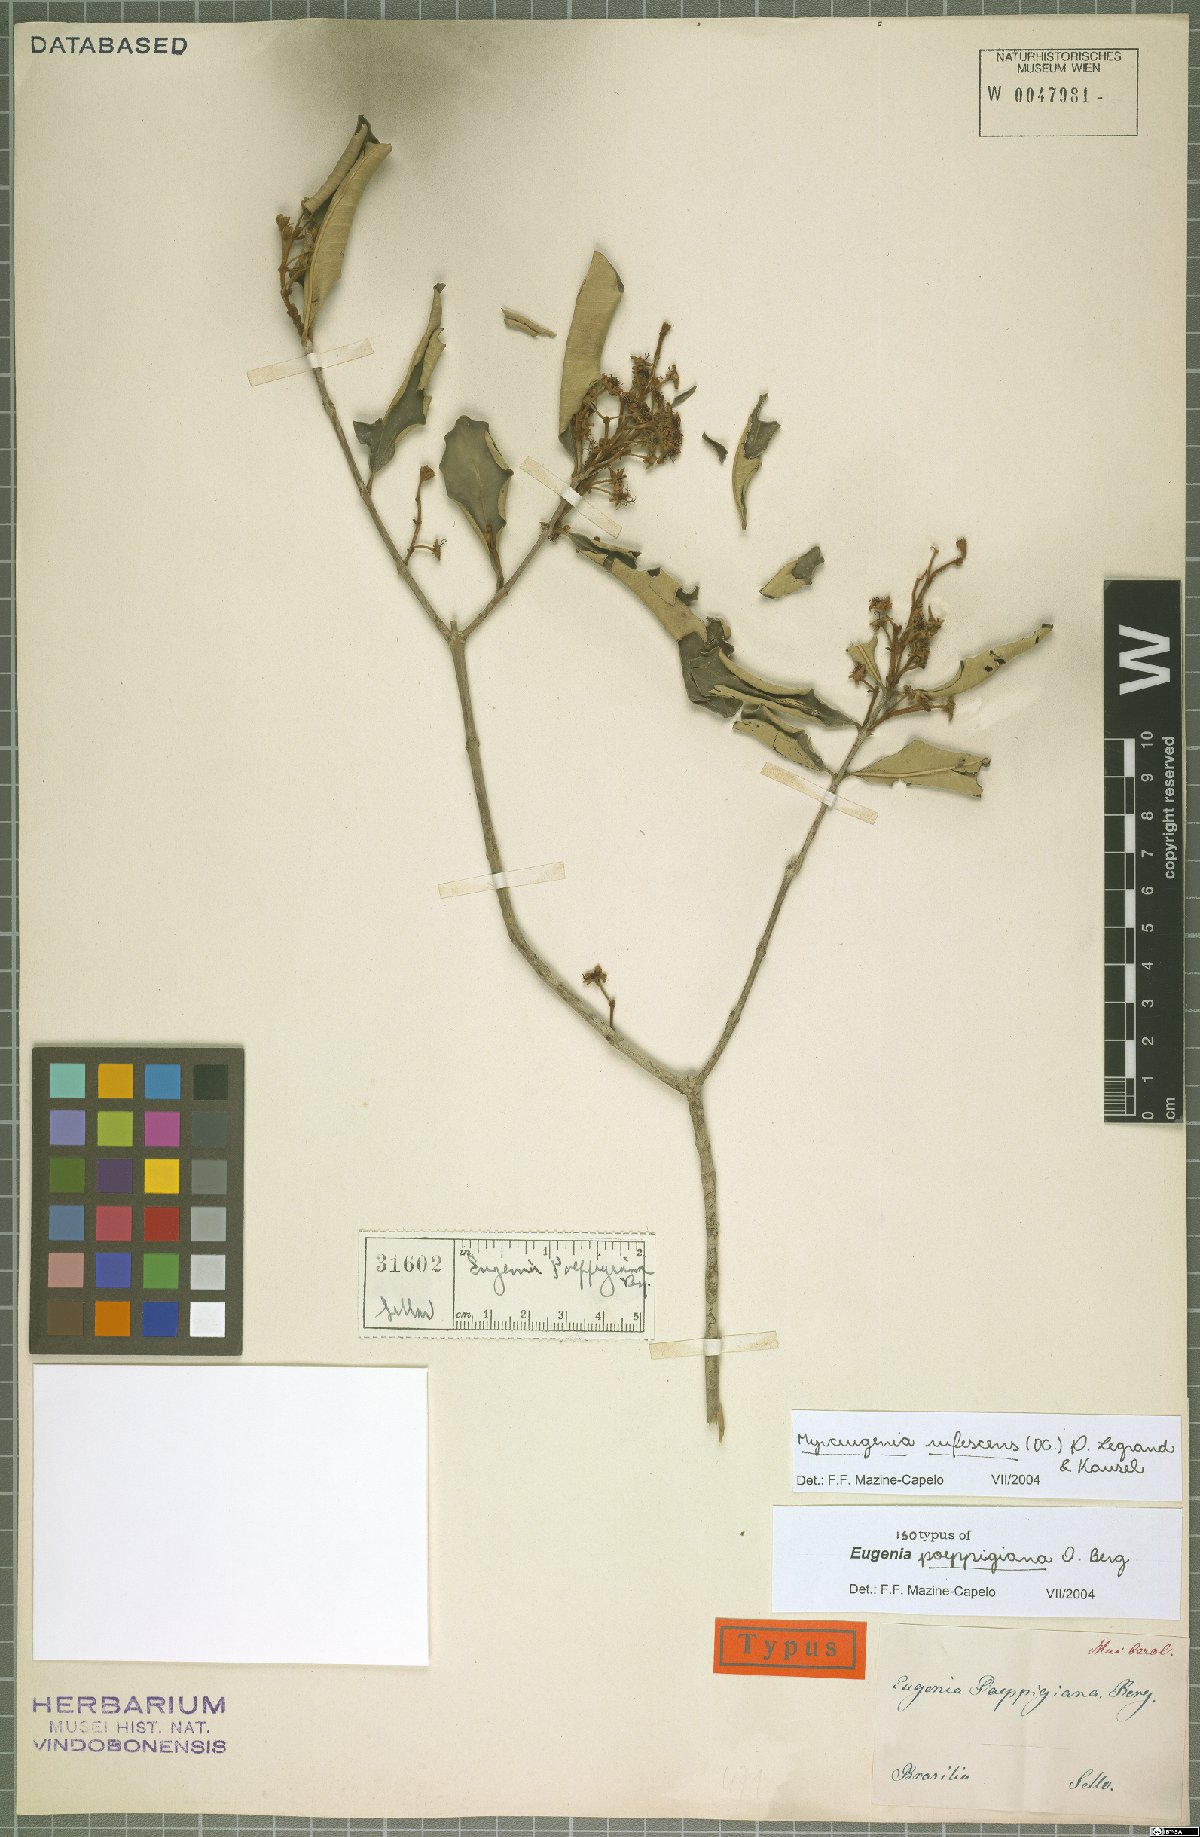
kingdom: Plantae
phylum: Tracheophyta
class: Magnoliopsida
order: Myrtales
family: Myrtaceae
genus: Myrceugenia
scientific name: Myrceugenia rufescens
